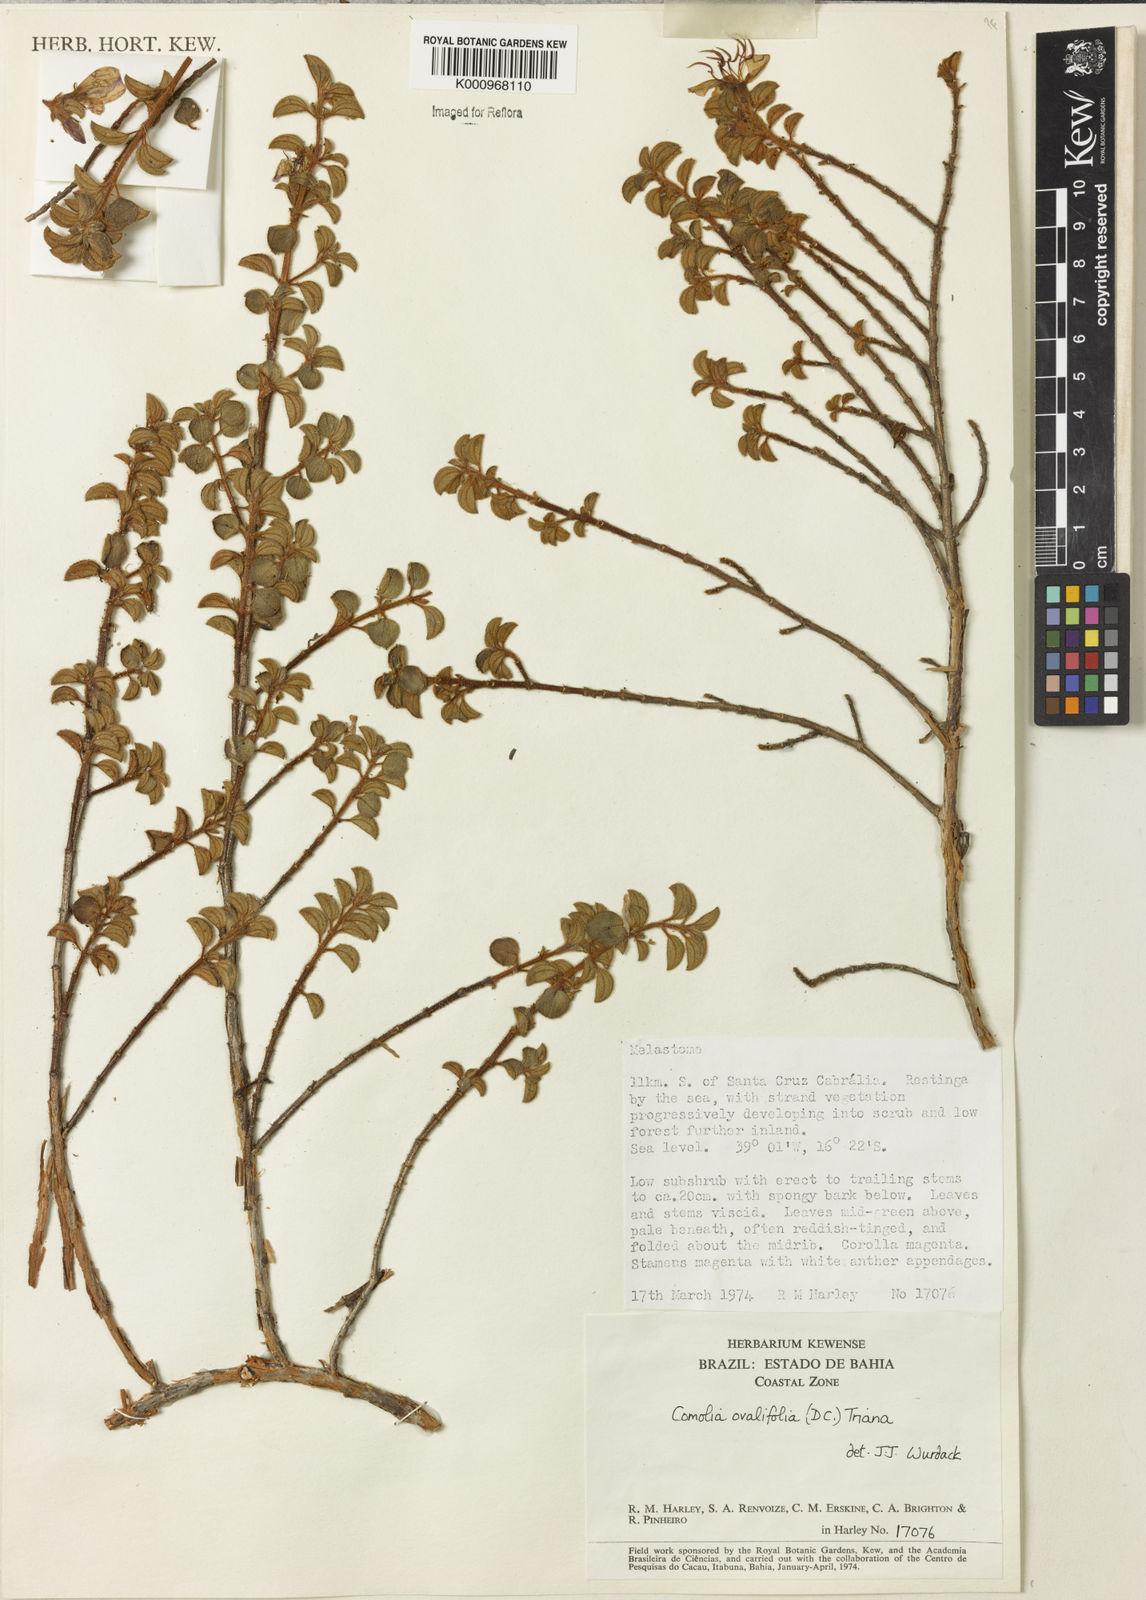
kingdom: Plantae
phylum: Tracheophyta
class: Magnoliopsida
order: Myrtales
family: Melastomataceae
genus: Comolia
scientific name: Comolia ovalifolia
